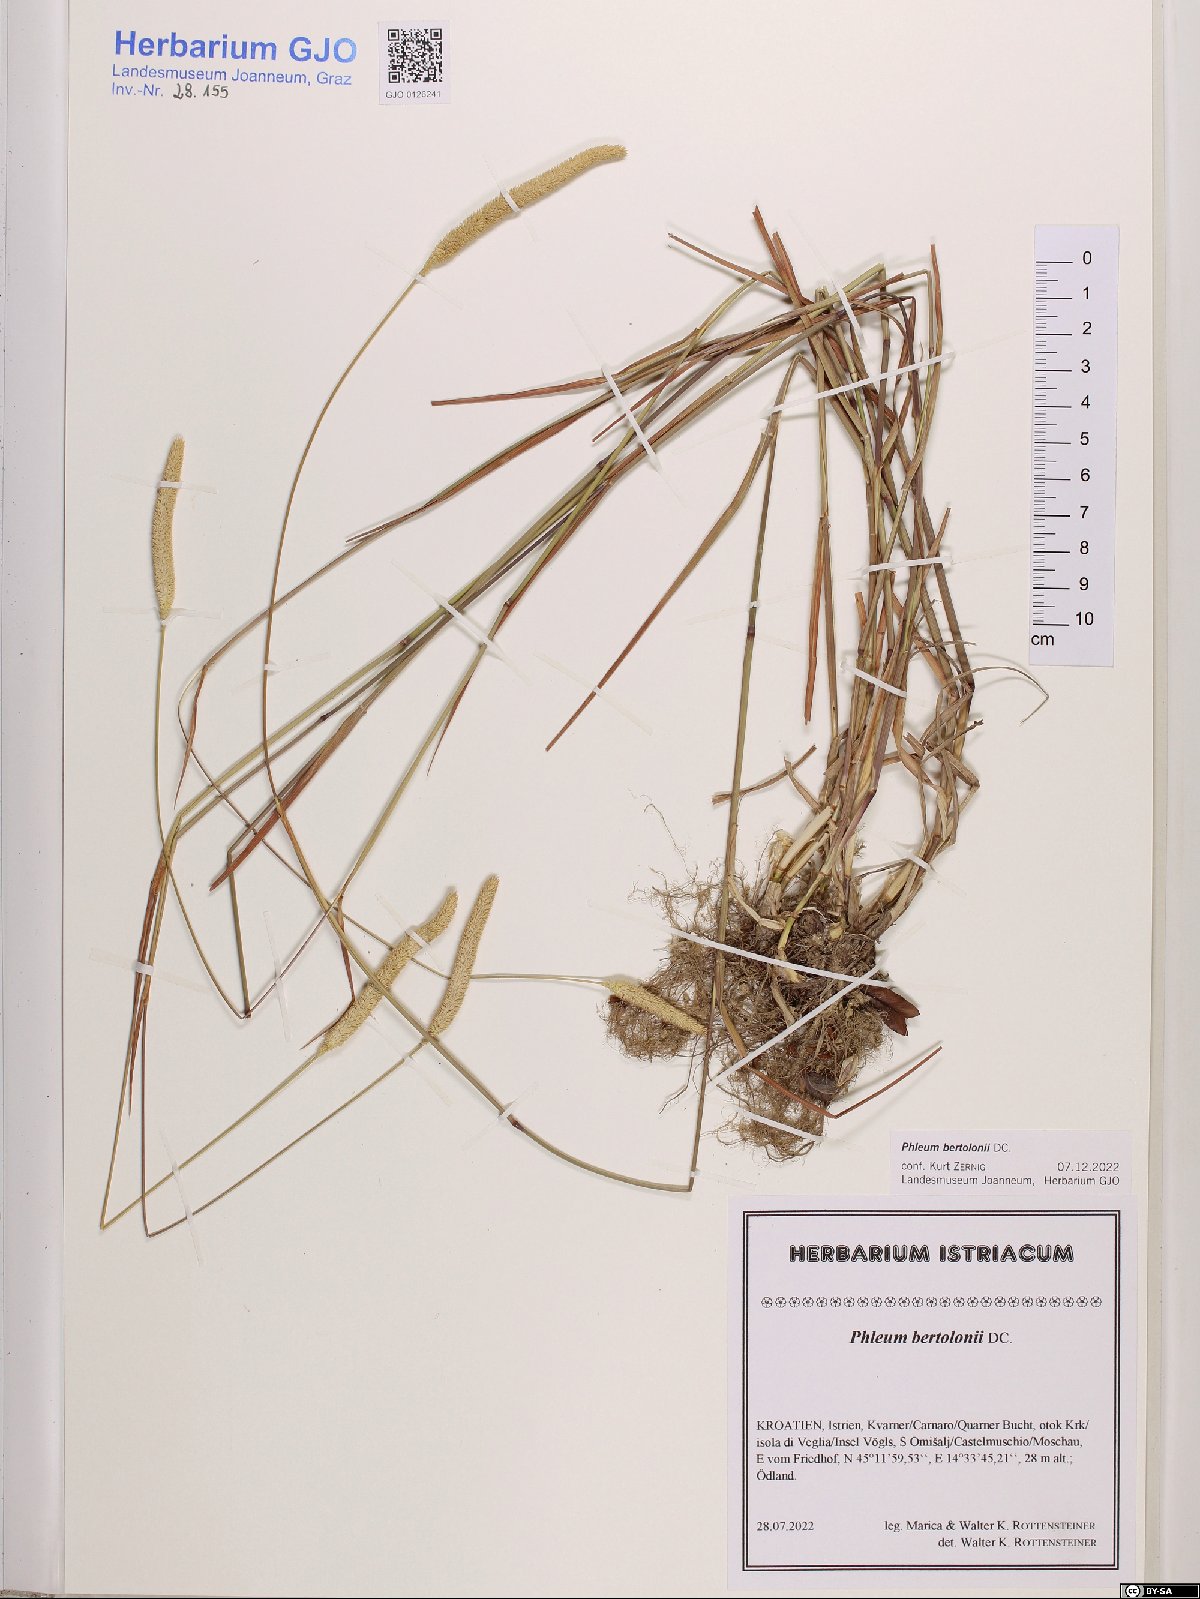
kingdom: Plantae
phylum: Tracheophyta
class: Liliopsida
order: Poales
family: Poaceae
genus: Phleum
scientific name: Phleum bertolonii
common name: Smaller cat's-tail
